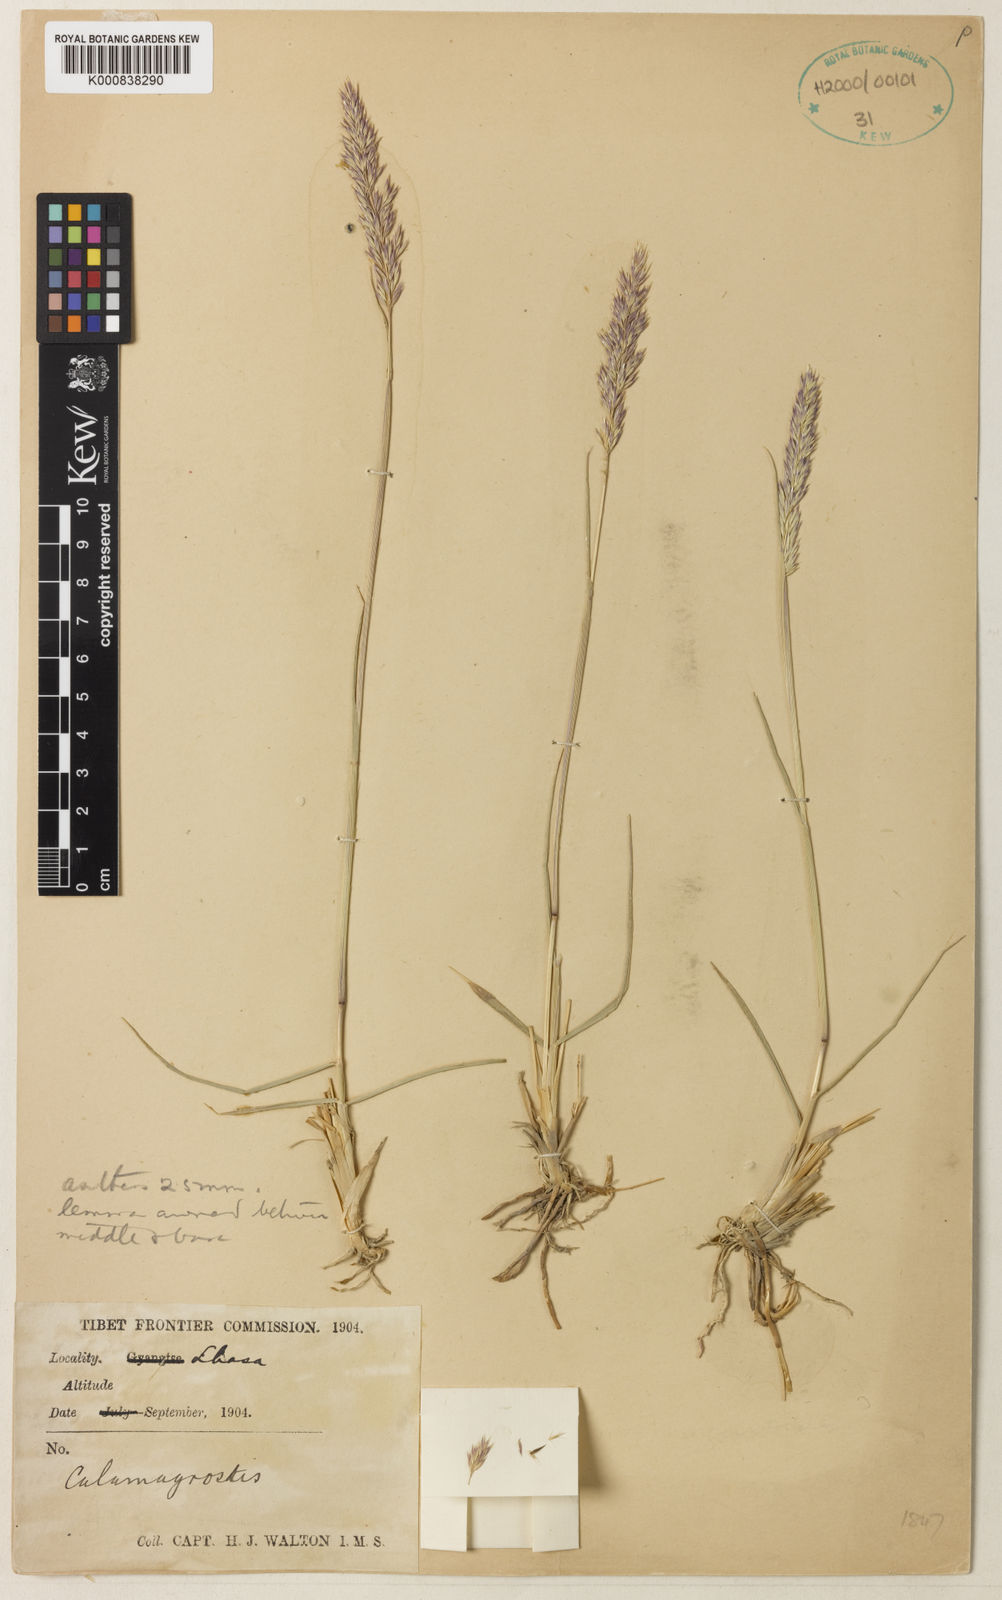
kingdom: Plantae
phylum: Tracheophyta
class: Liliopsida
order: Poales
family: Poaceae
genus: Calamagrostis
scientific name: Calamagrostis borii
